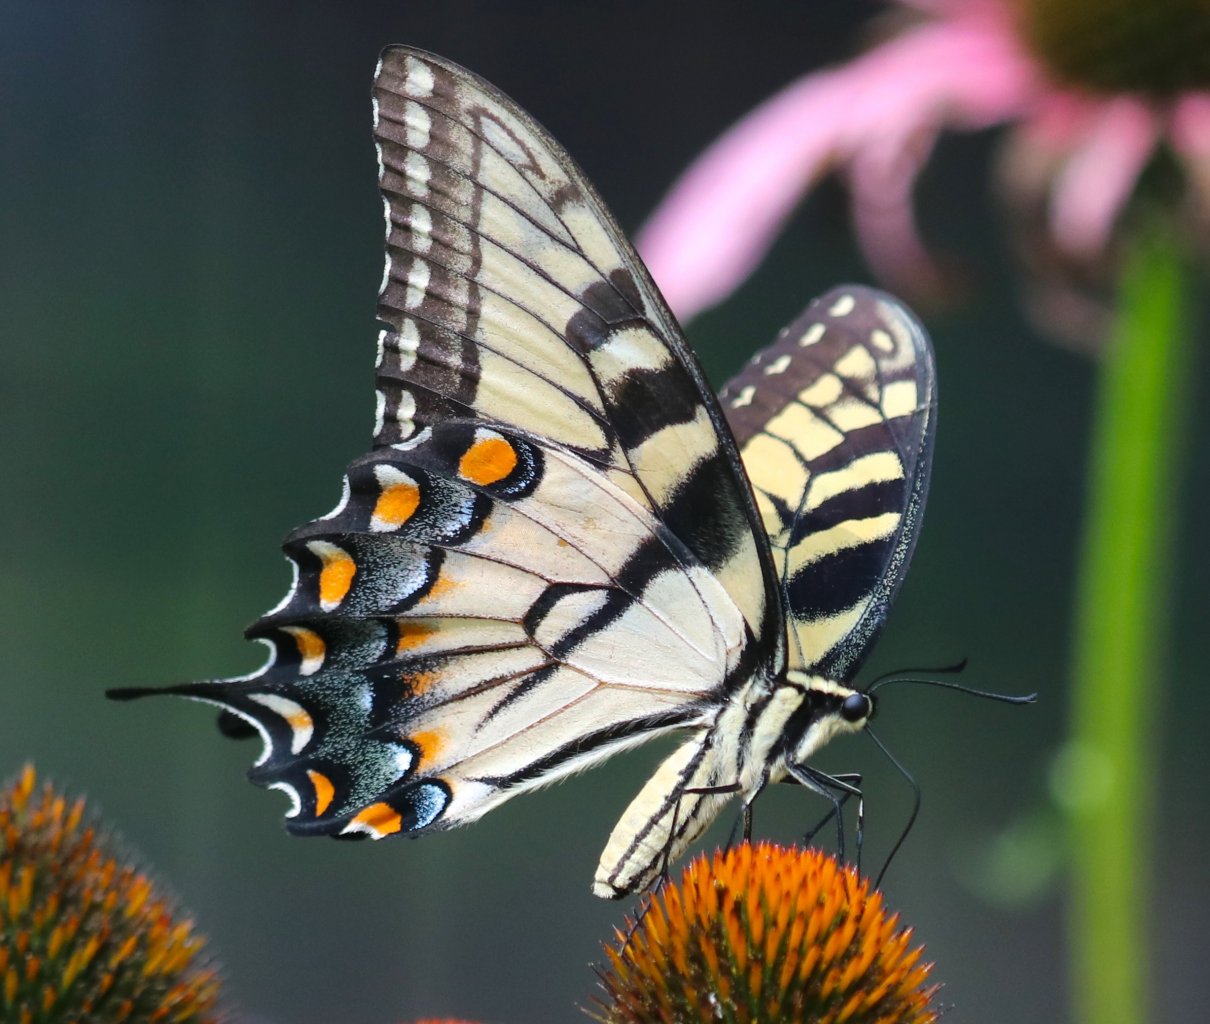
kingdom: Animalia
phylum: Arthropoda
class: Insecta
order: Lepidoptera
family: Papilionidae
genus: Pterourus
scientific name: Pterourus glaucus
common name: Eastern Tiger Swallowtail
